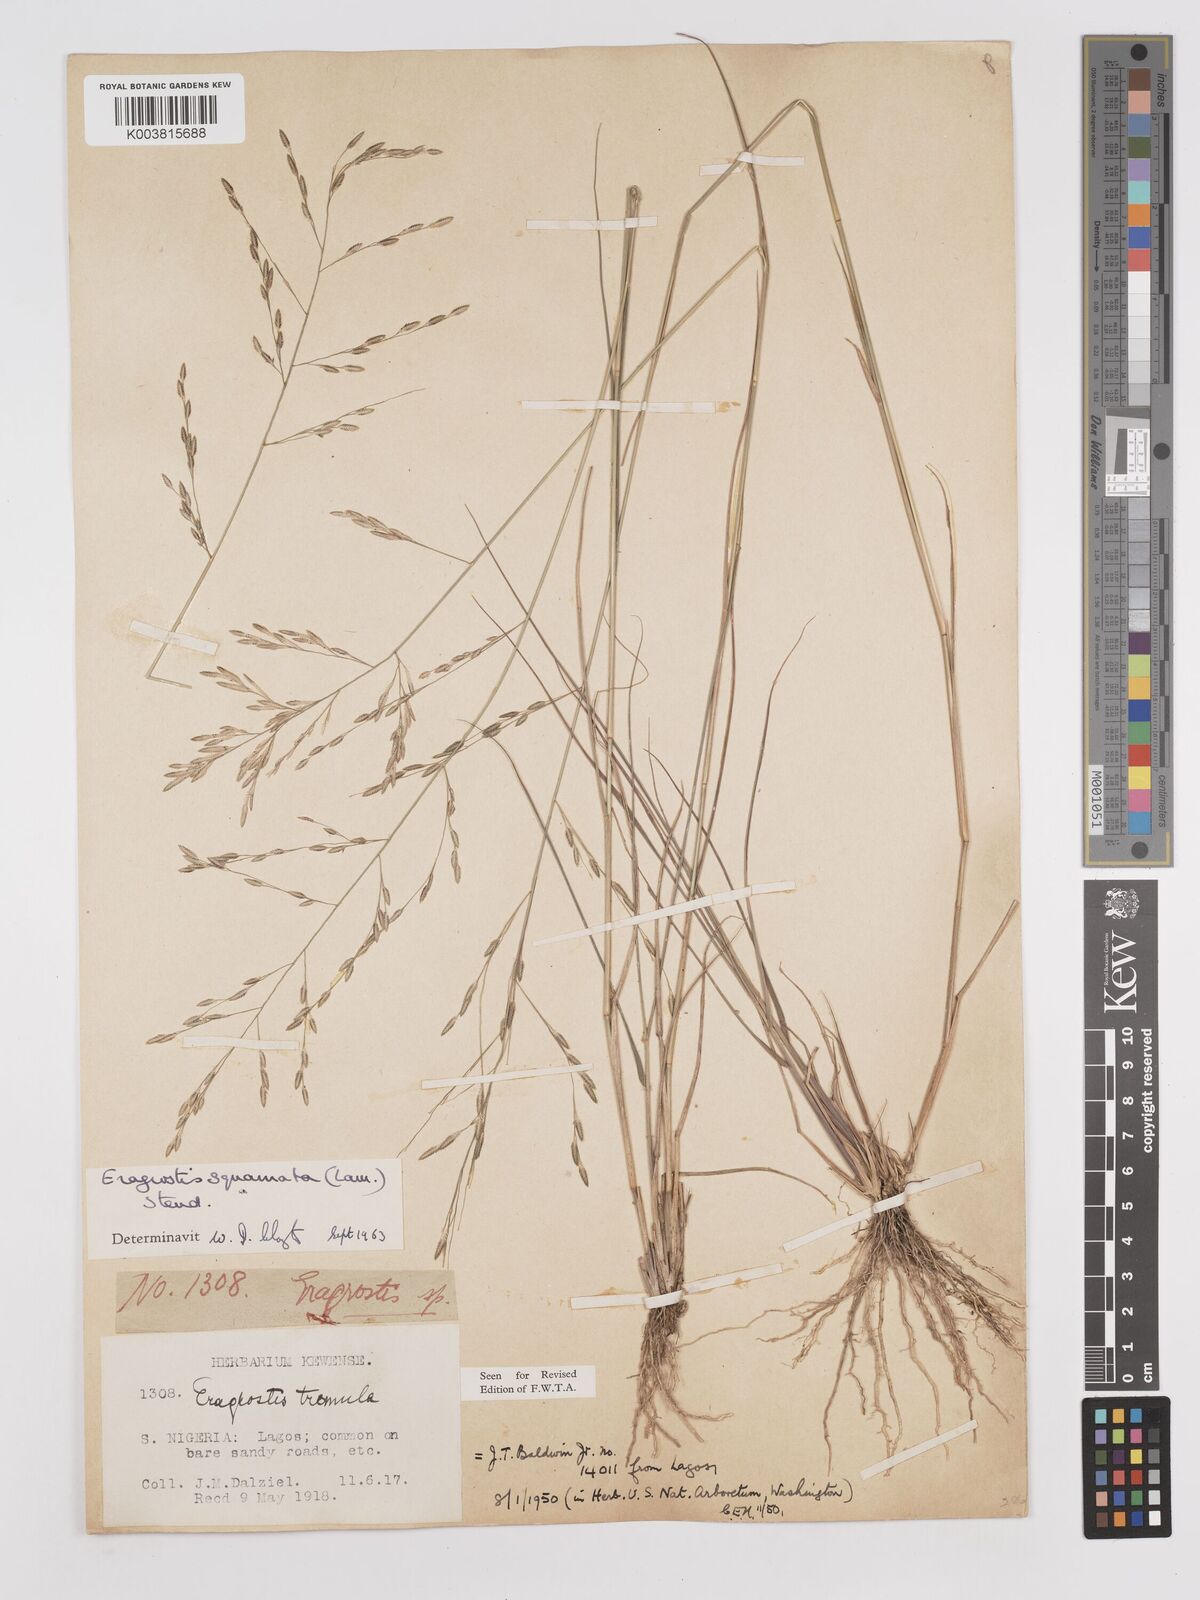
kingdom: Plantae
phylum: Tracheophyta
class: Liliopsida
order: Poales
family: Poaceae
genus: Eragrostis
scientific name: Eragrostis squamata
